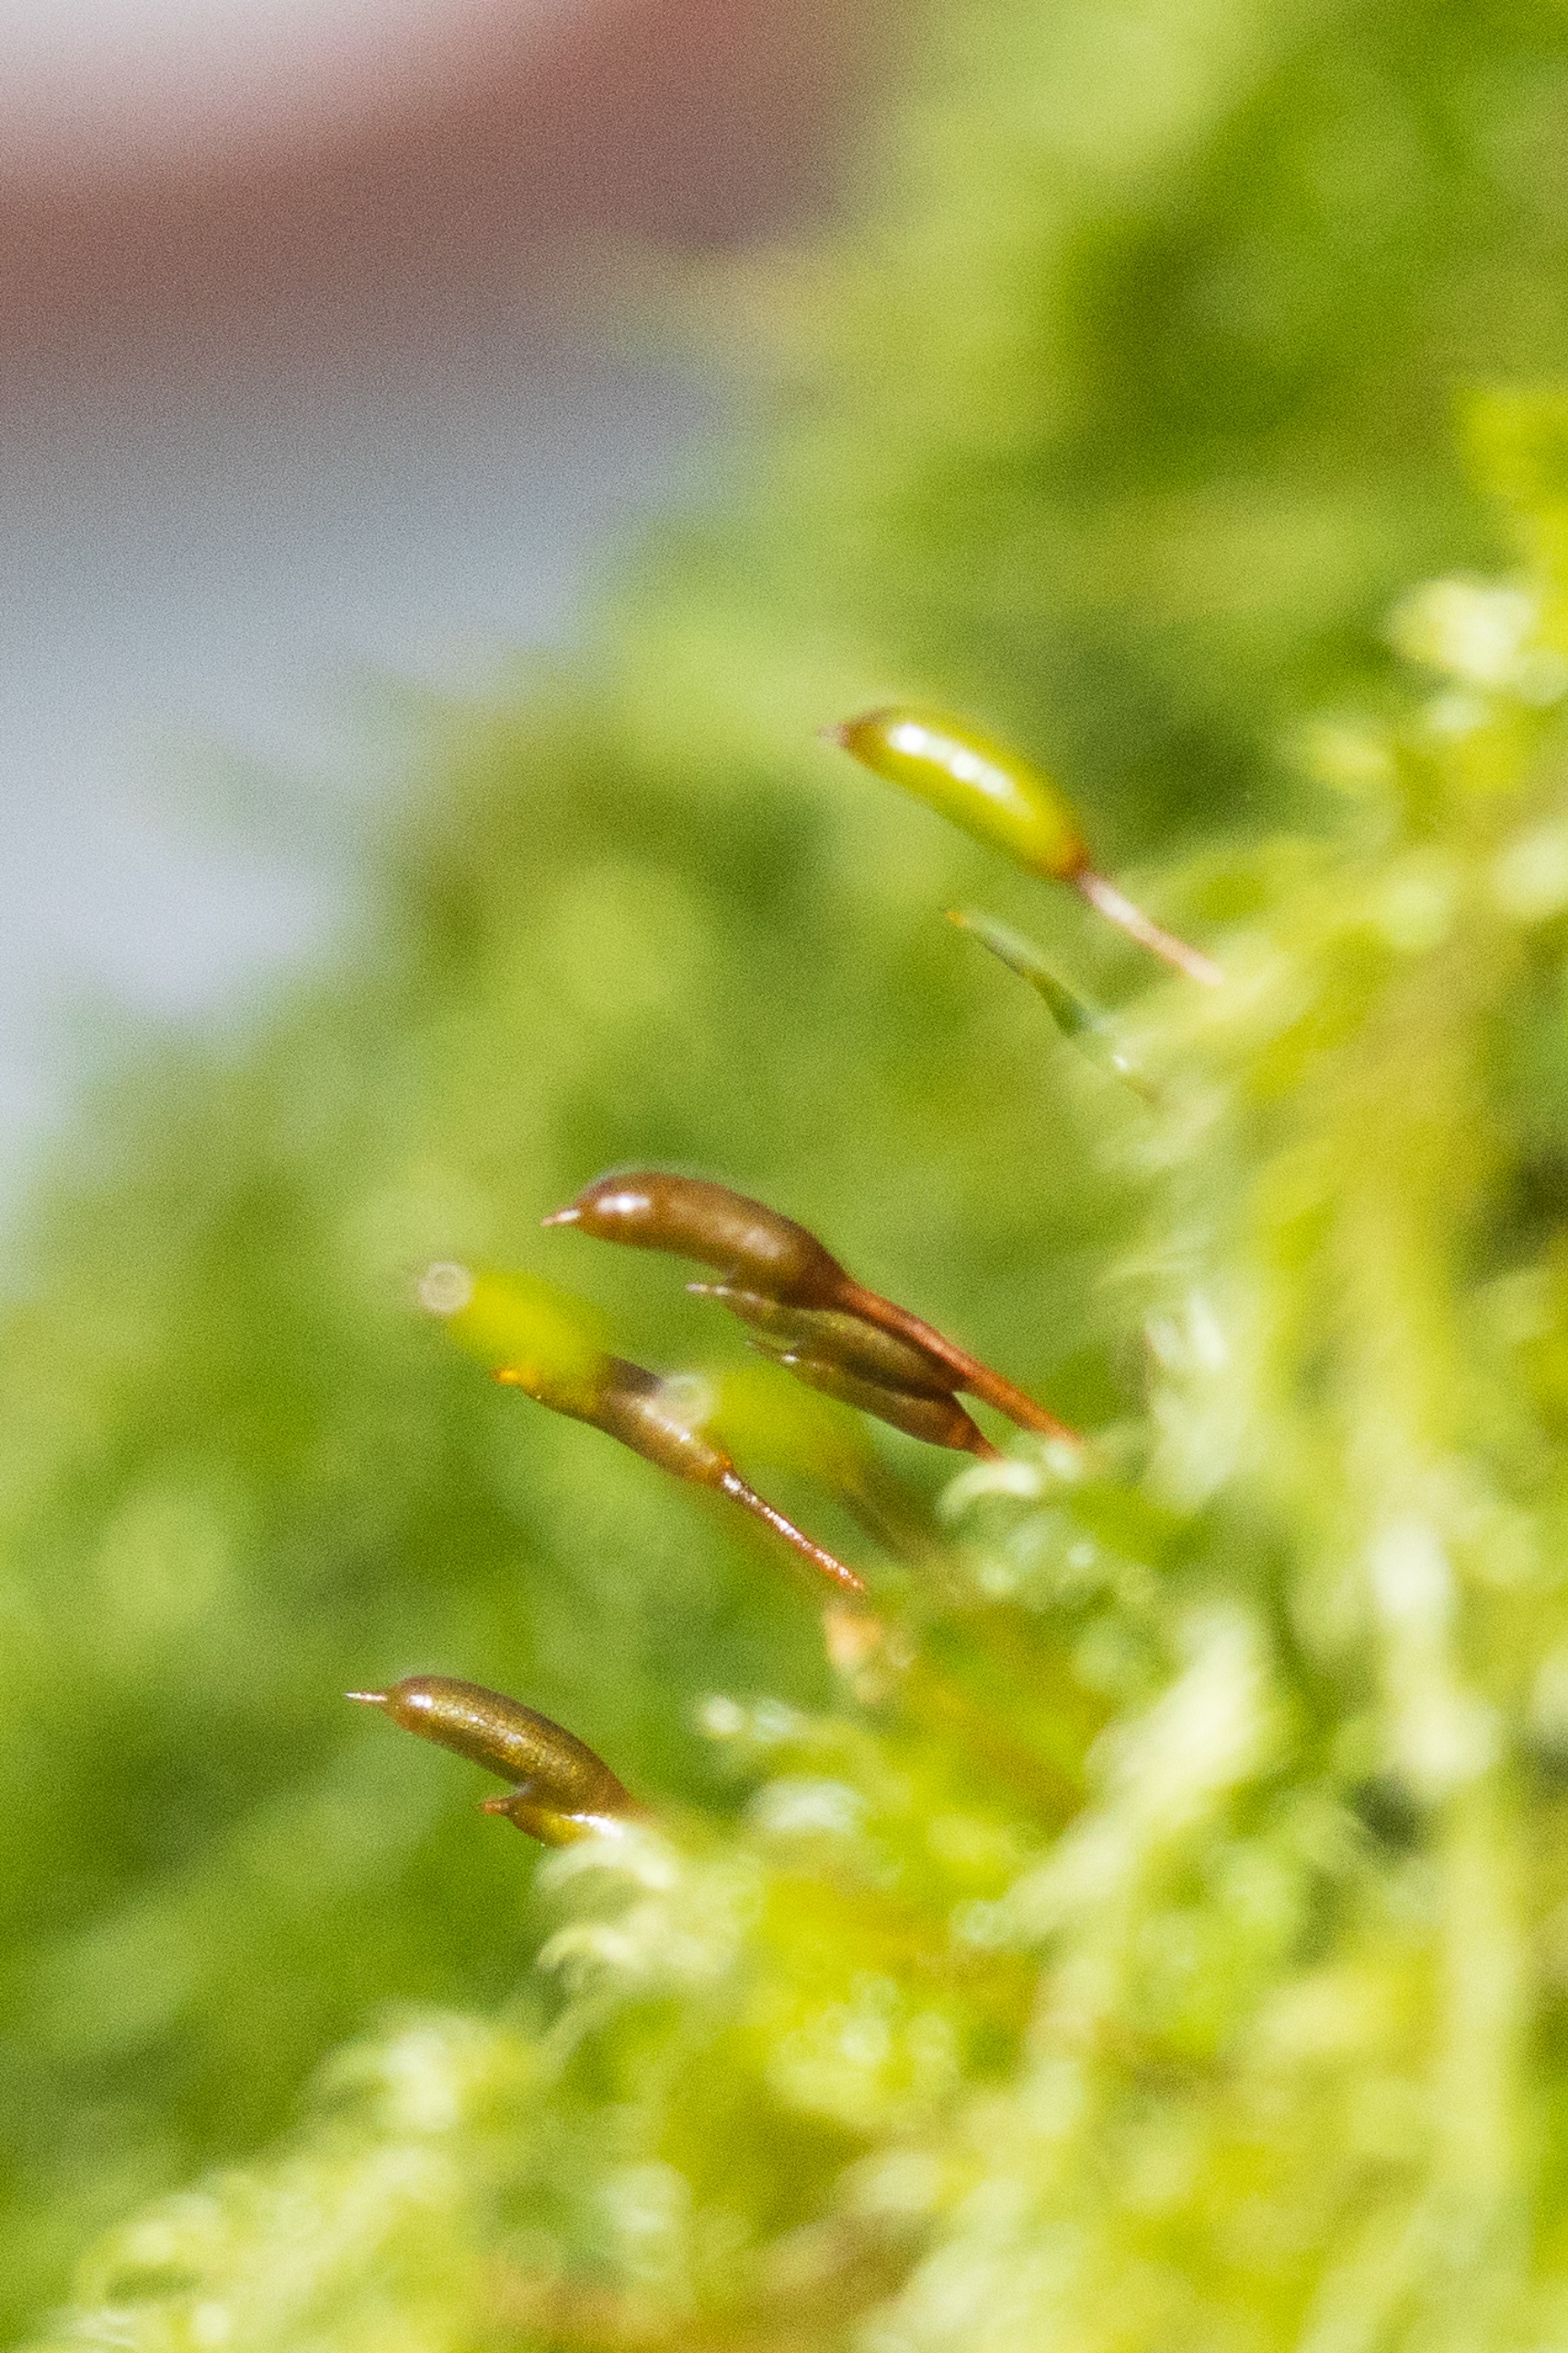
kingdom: Plantae
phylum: Bryophyta
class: Bryopsida
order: Hypnales
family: Hypnaceae
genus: Hypnum
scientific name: Hypnum cupressiforme
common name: Almindelig cypresmos
